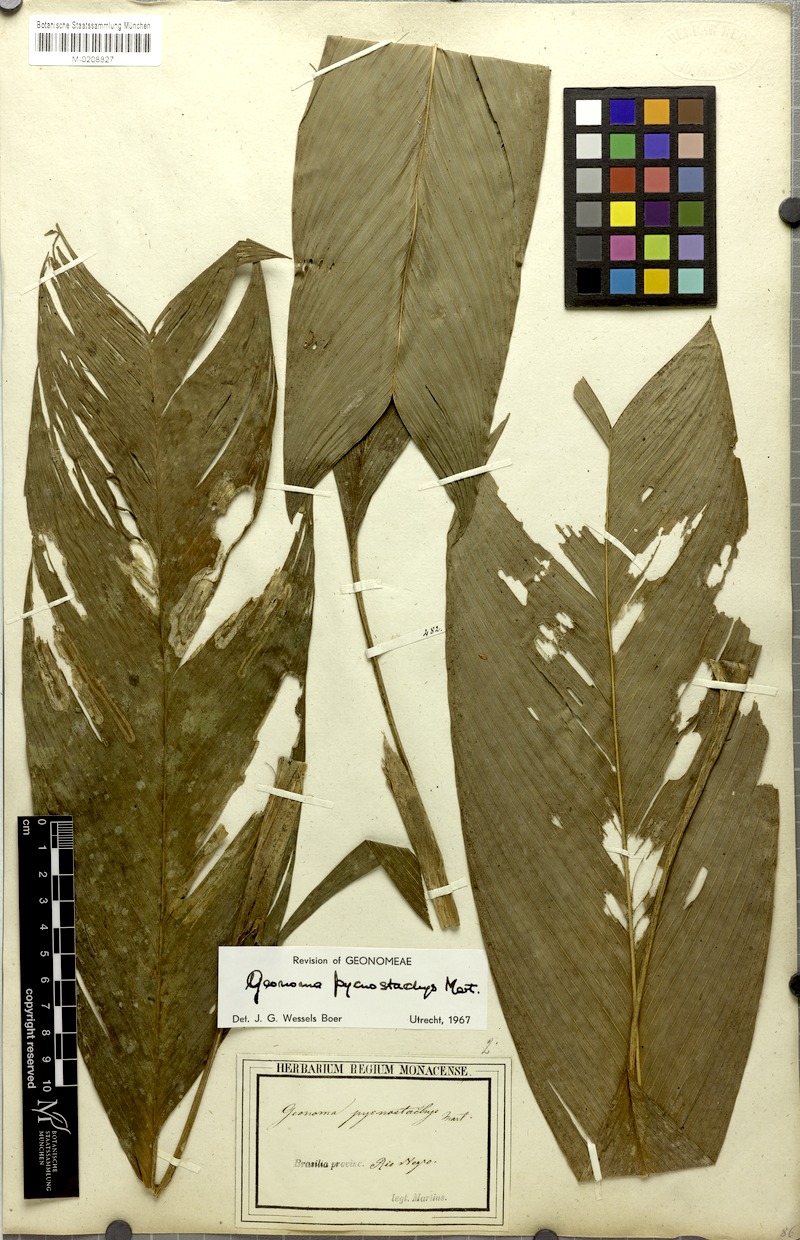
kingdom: Plantae
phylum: Tracheophyta
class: Liliopsida
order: Arecales
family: Arecaceae
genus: Geonoma
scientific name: Geonoma stricta
